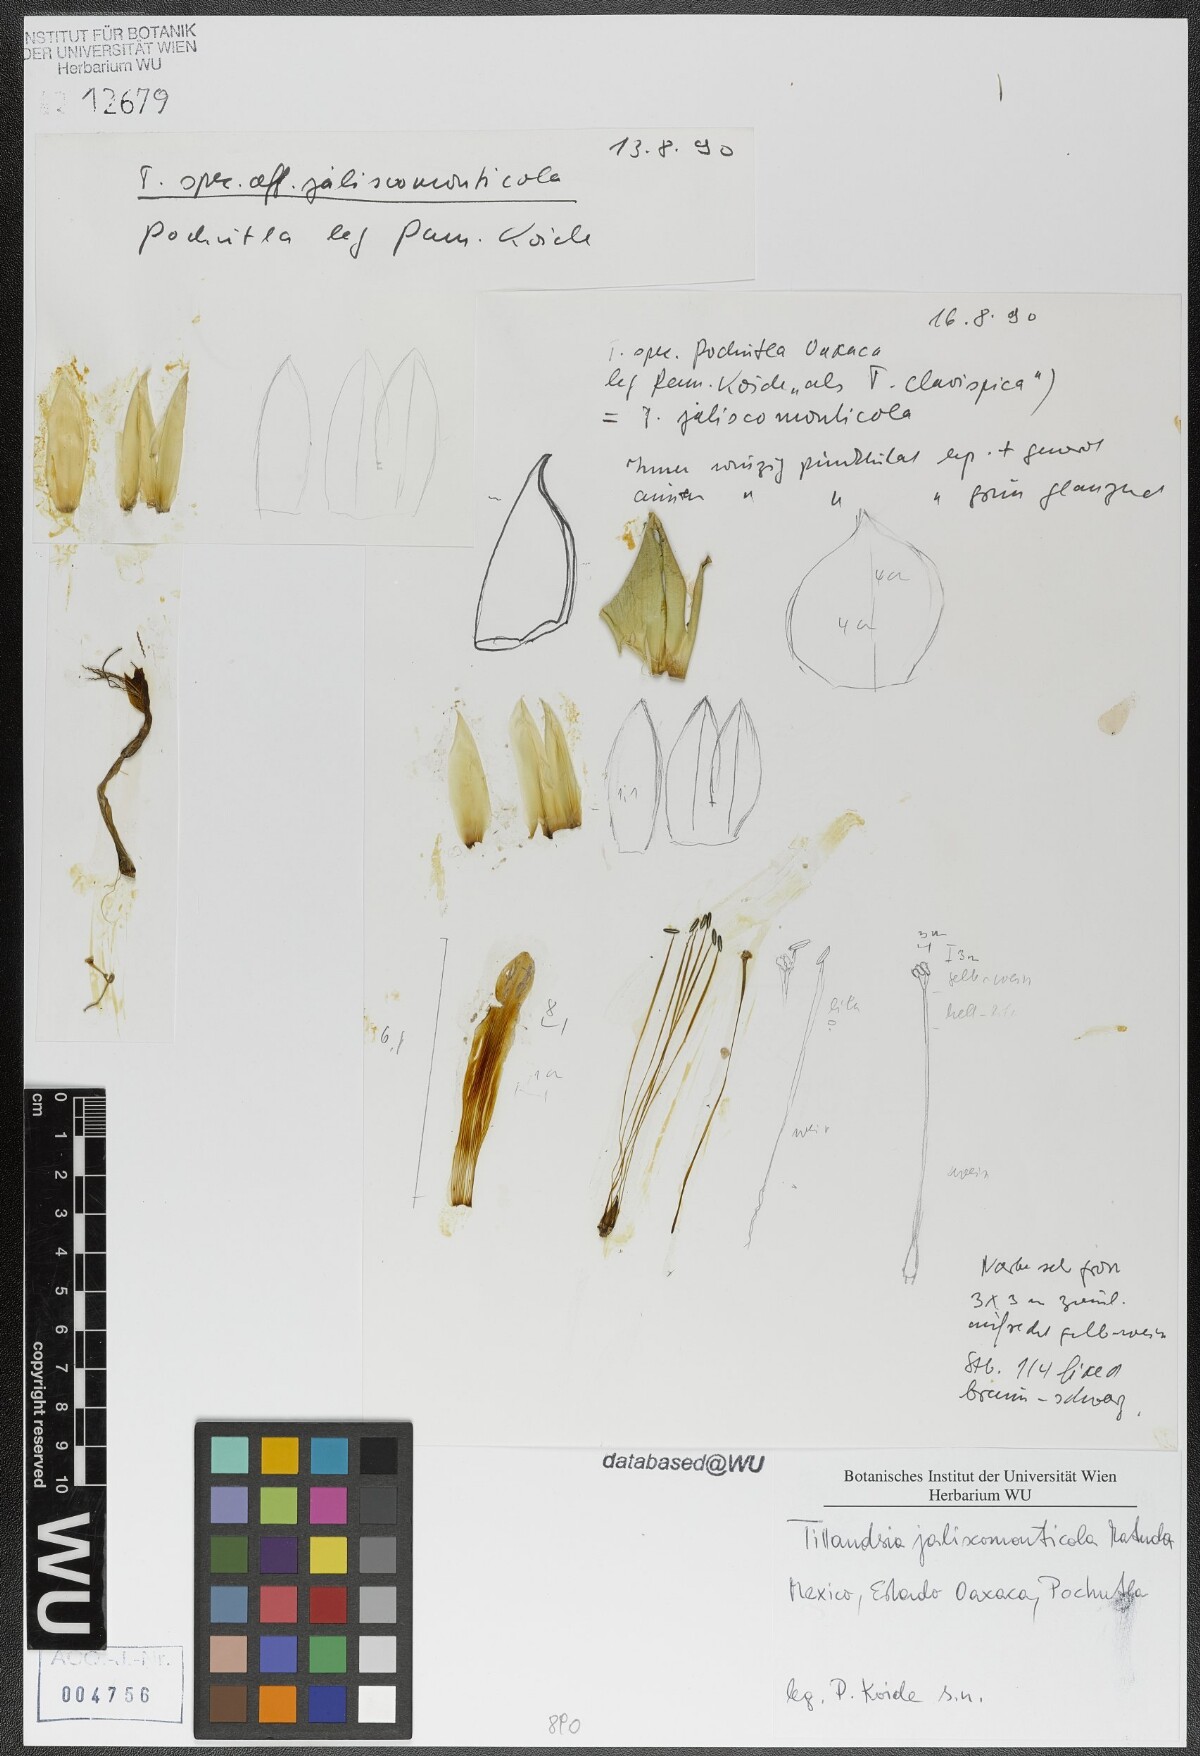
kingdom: Plantae
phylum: Tracheophyta
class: Liliopsida
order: Poales
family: Bromeliaceae
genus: Tillandsia
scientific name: Tillandsia compressa
